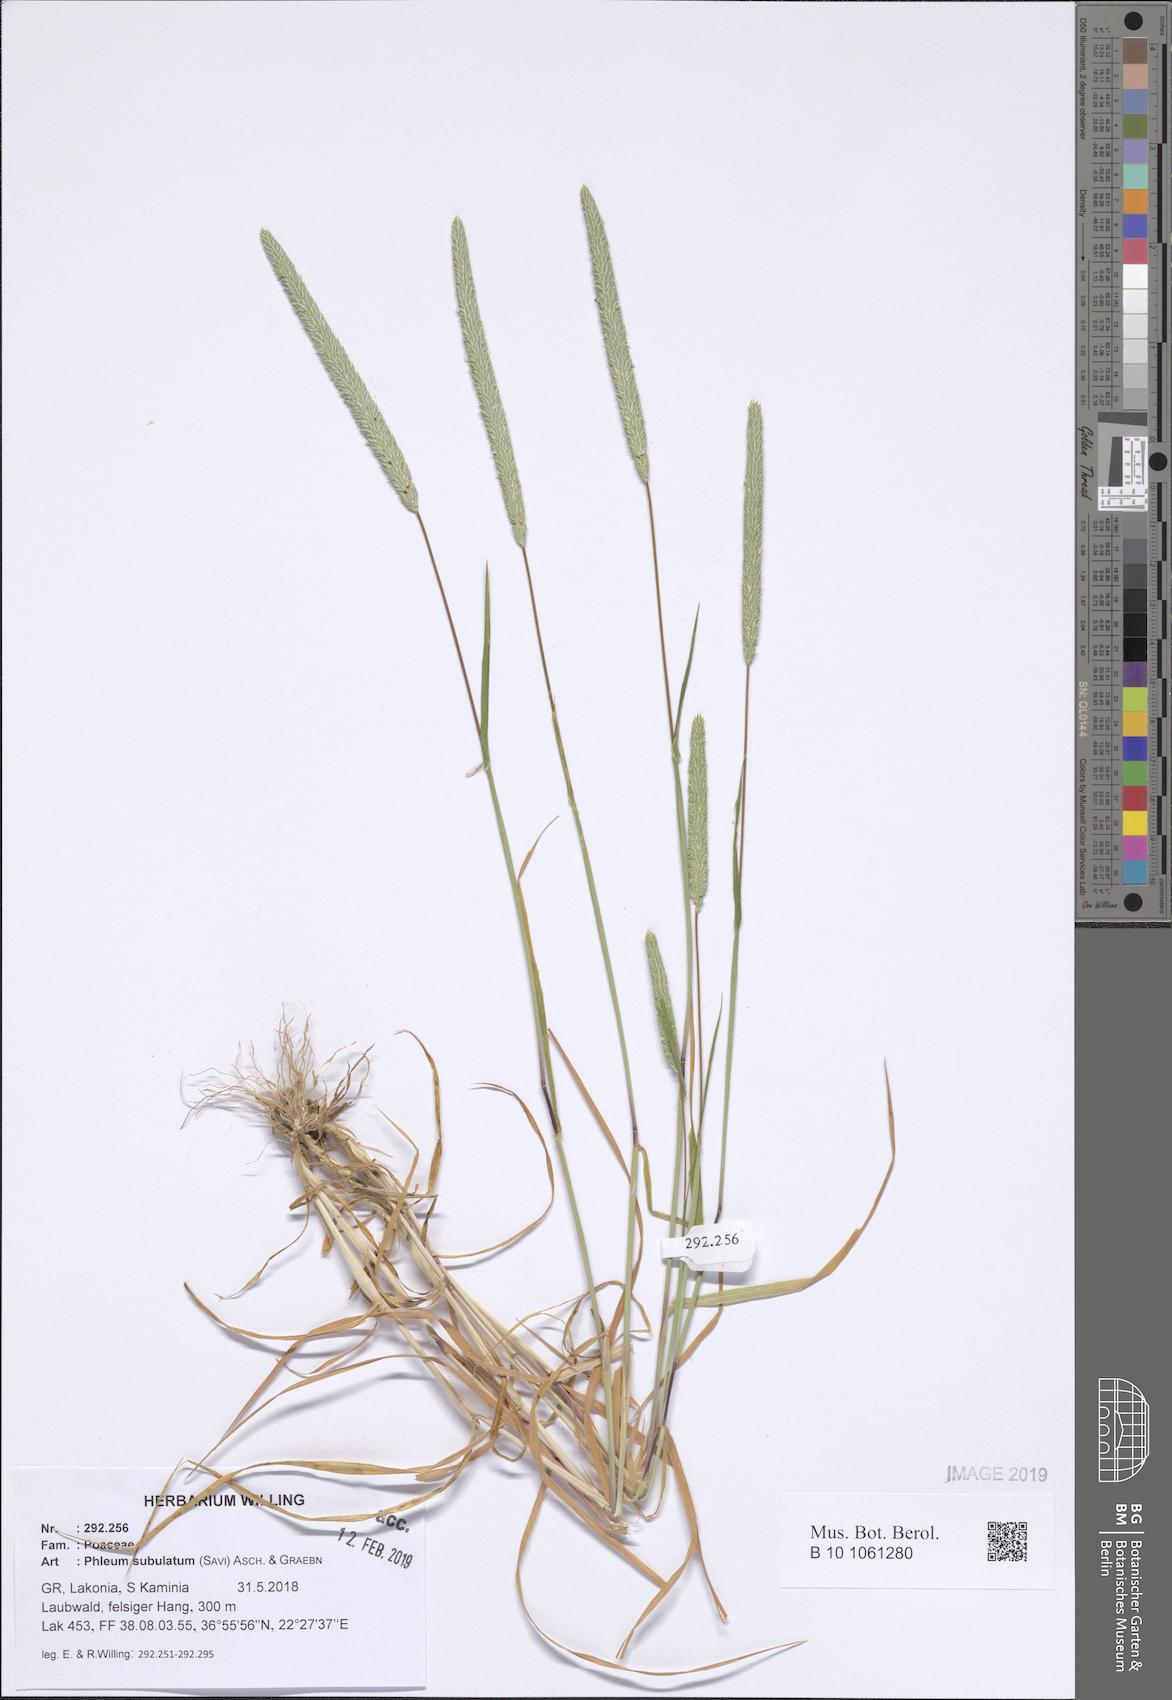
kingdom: Plantae
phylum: Tracheophyta
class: Liliopsida
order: Poales
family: Poaceae
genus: Phleum
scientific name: Phleum subulatum
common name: Italian timothy
